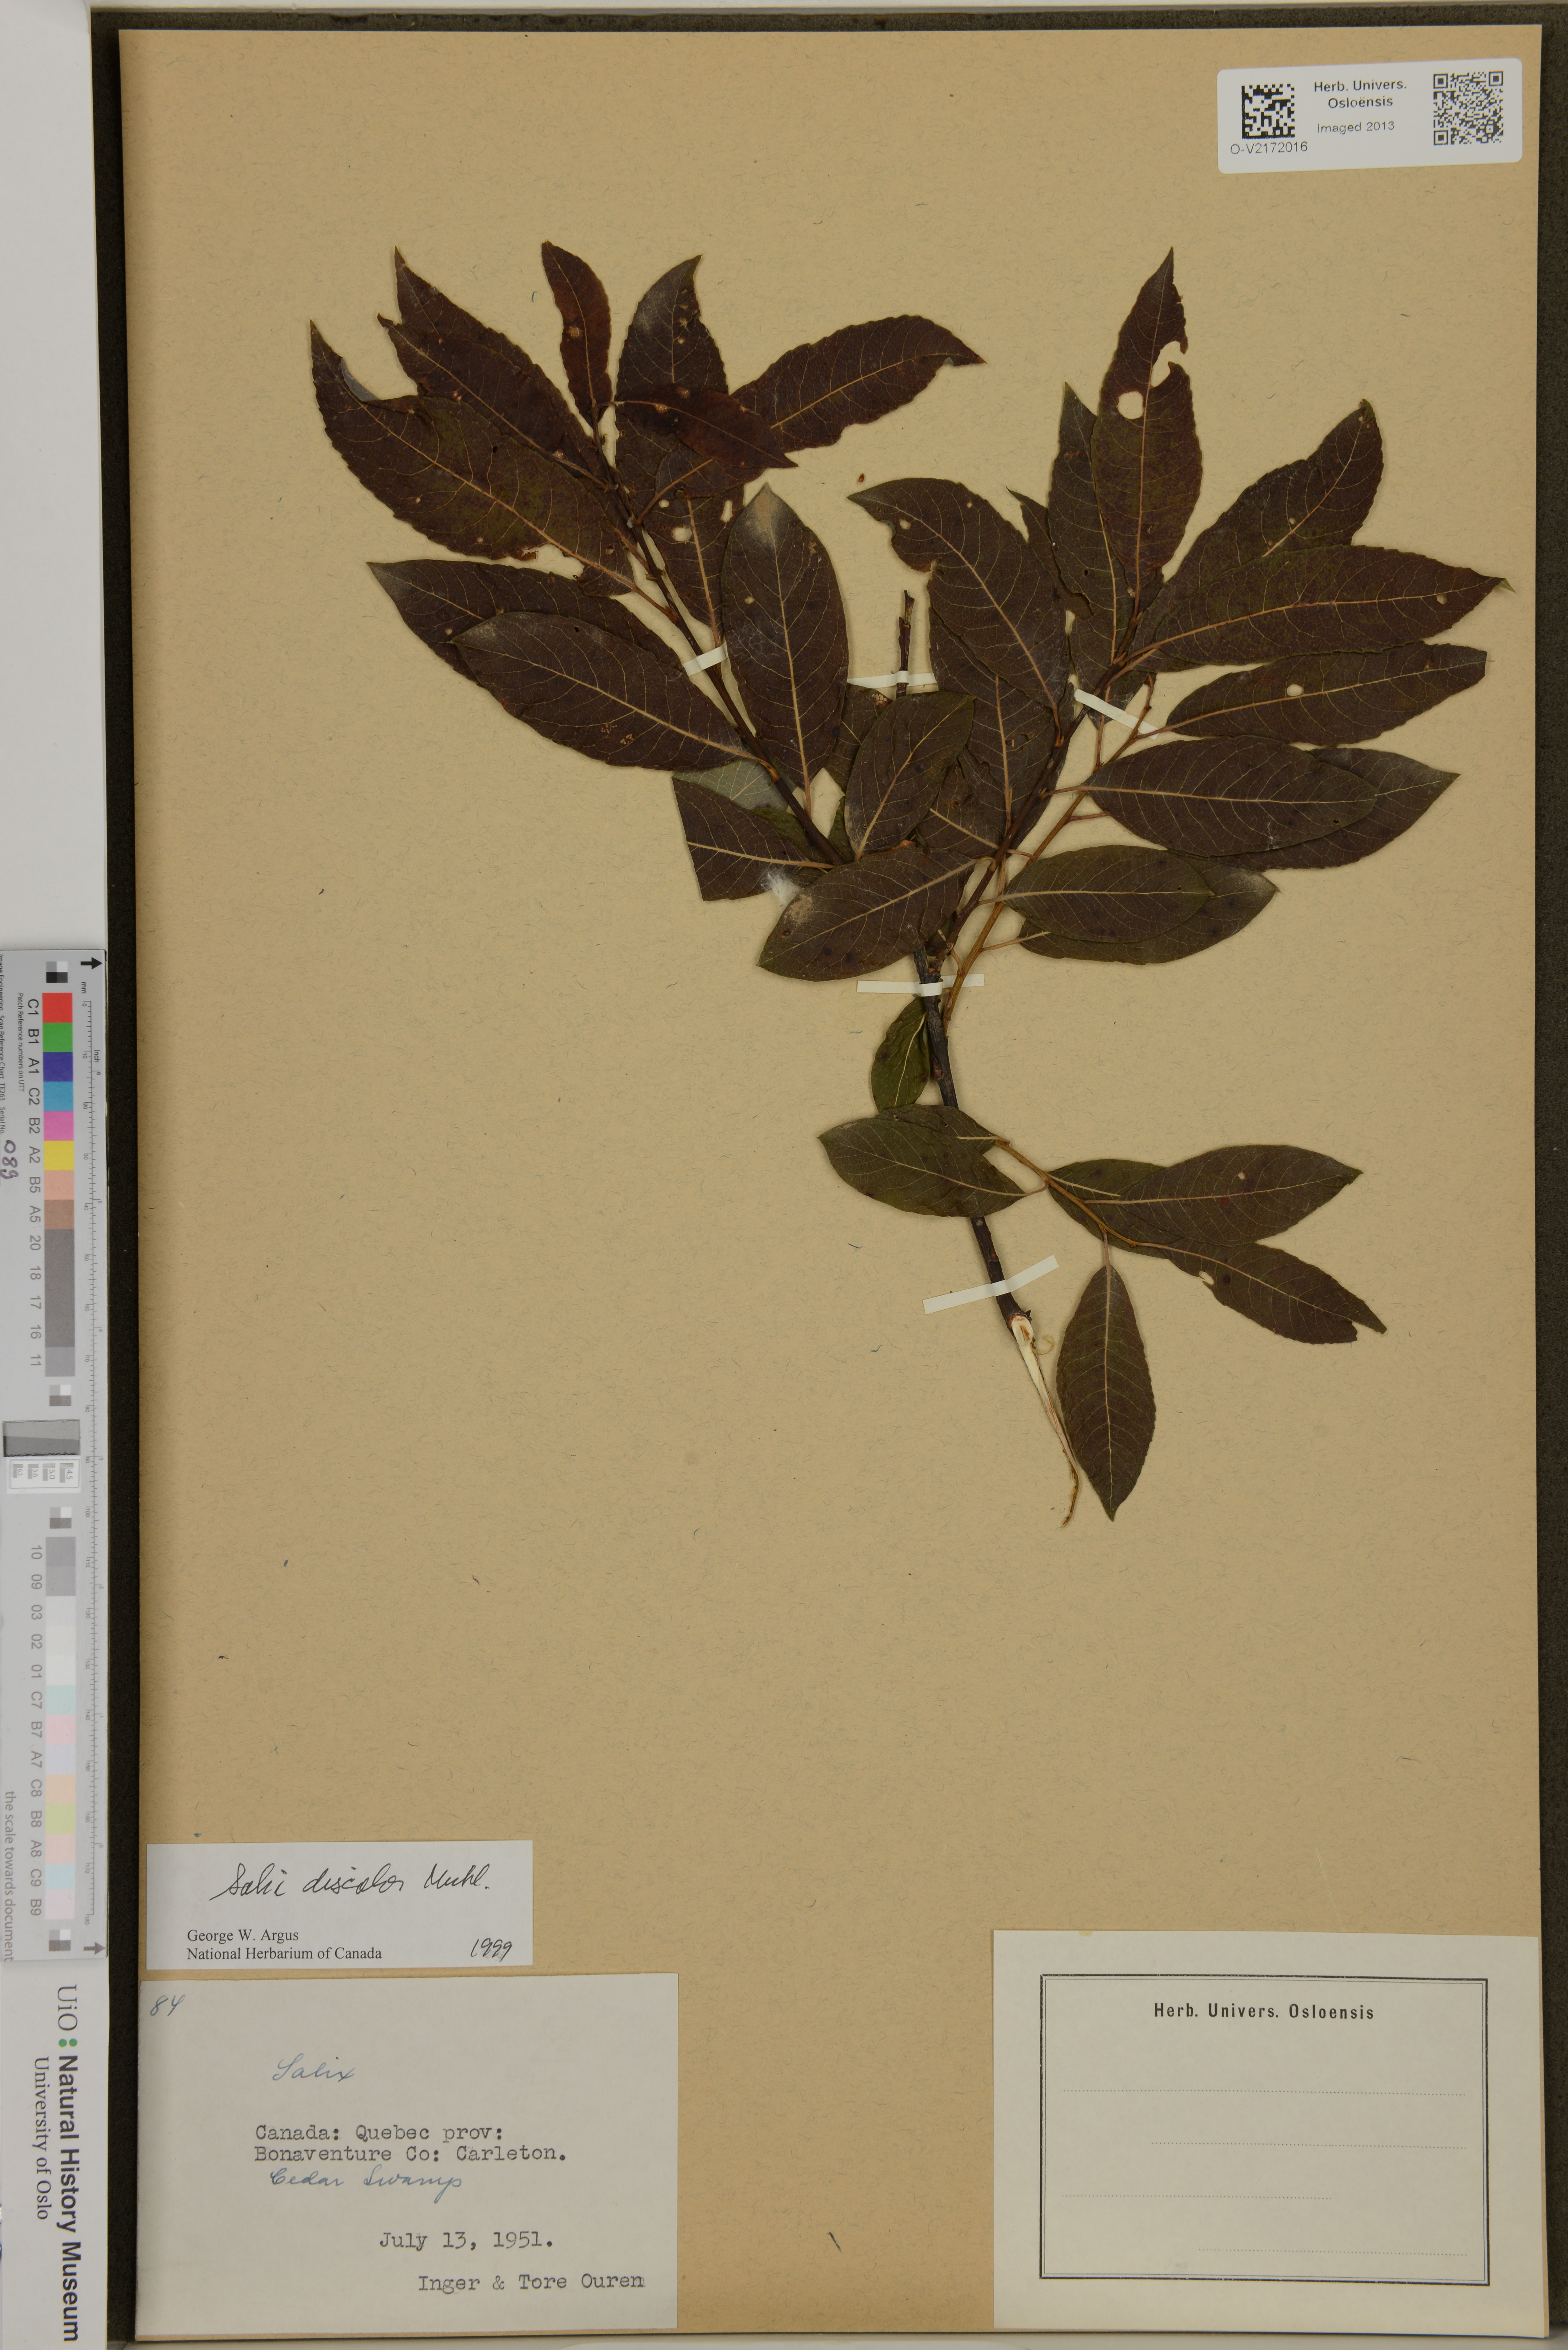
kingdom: Plantae
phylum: Tracheophyta
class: Magnoliopsida
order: Malpighiales
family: Salicaceae
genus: Salix
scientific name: Salix discolor
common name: Glaucous willow
